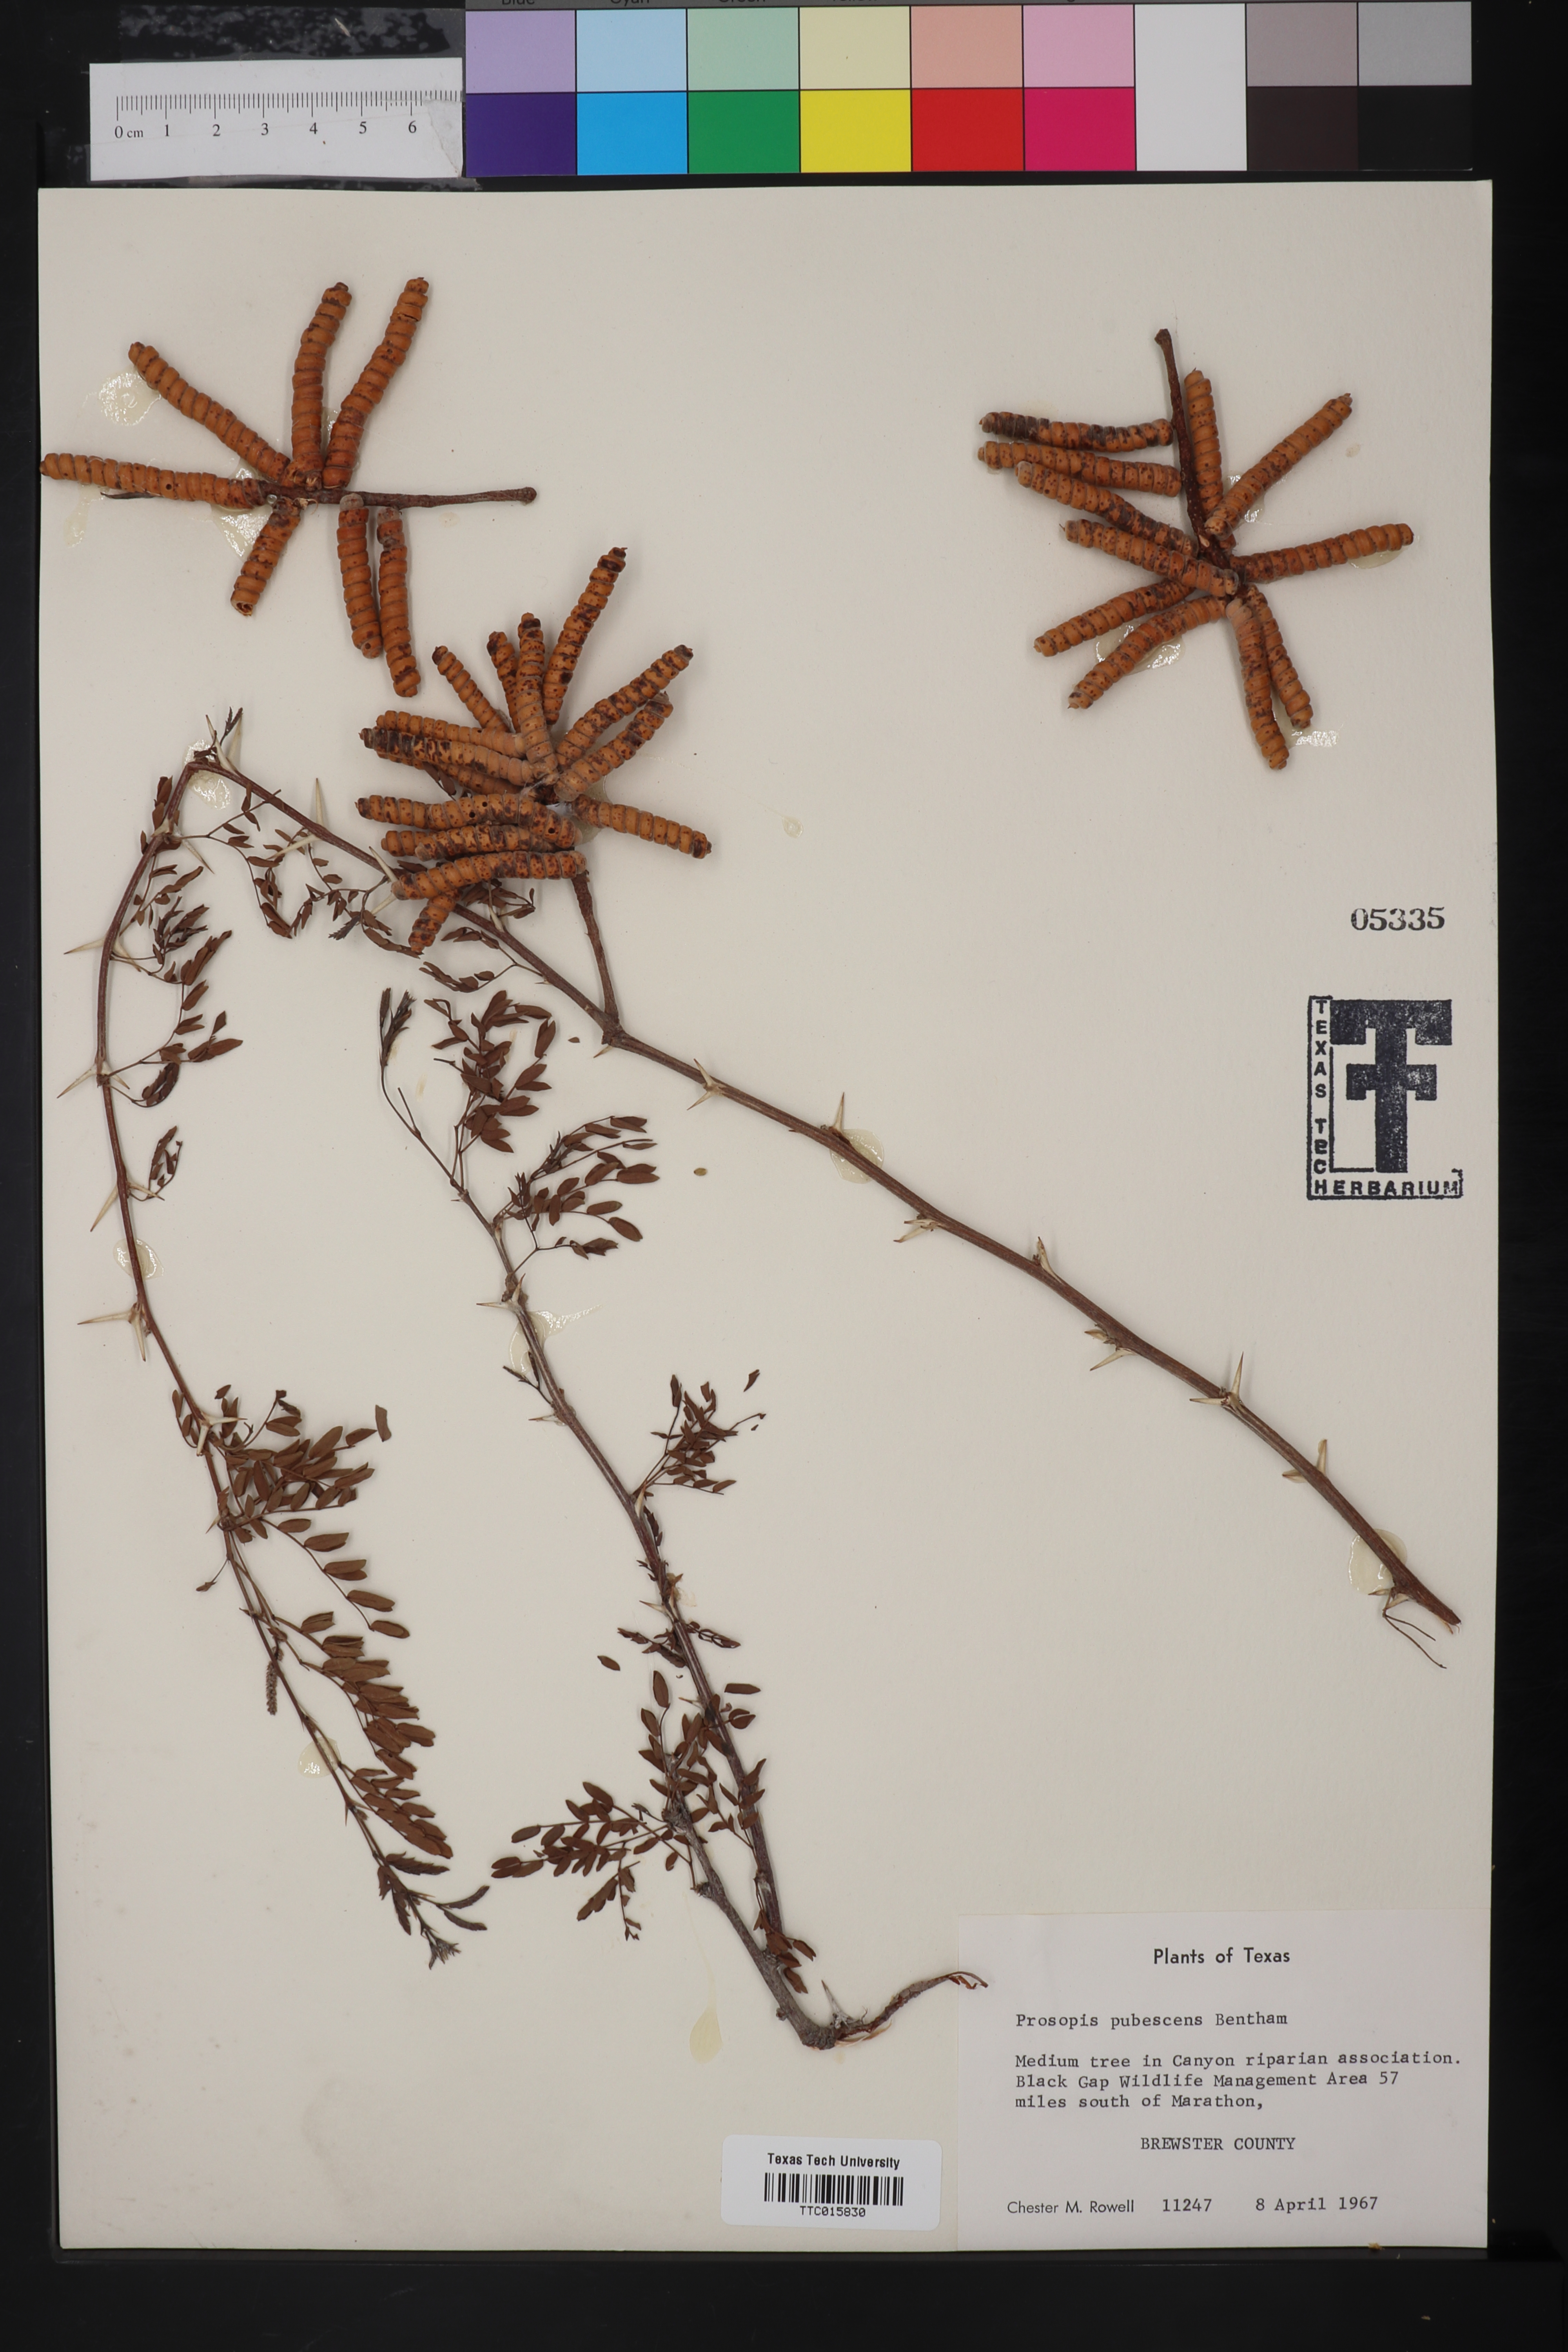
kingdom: Plantae
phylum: Tracheophyta
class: Magnoliopsida
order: Fabales
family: Fabaceae
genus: Prosopis
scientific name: Prosopis pubescens
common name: Screw-bean
